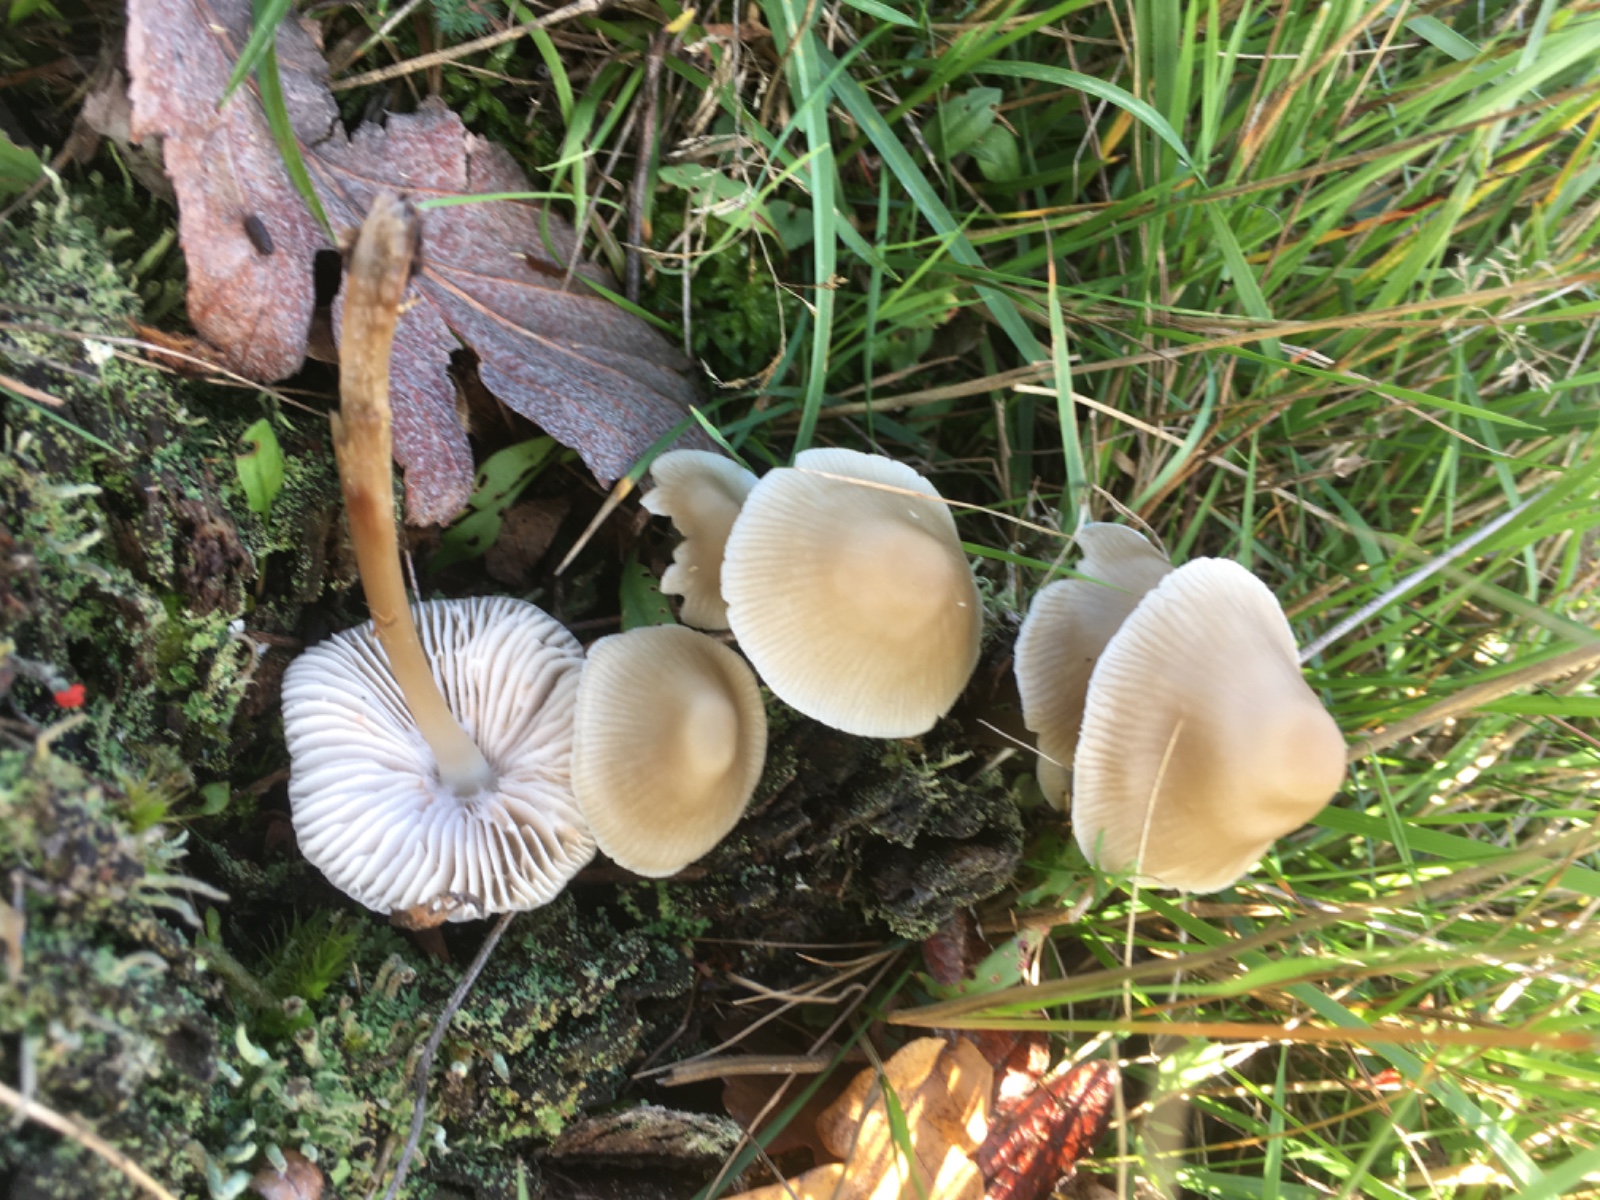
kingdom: Fungi
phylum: Basidiomycota
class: Agaricomycetes
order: Agaricales
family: Mycenaceae
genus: Mycena
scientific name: Mycena galericulata
